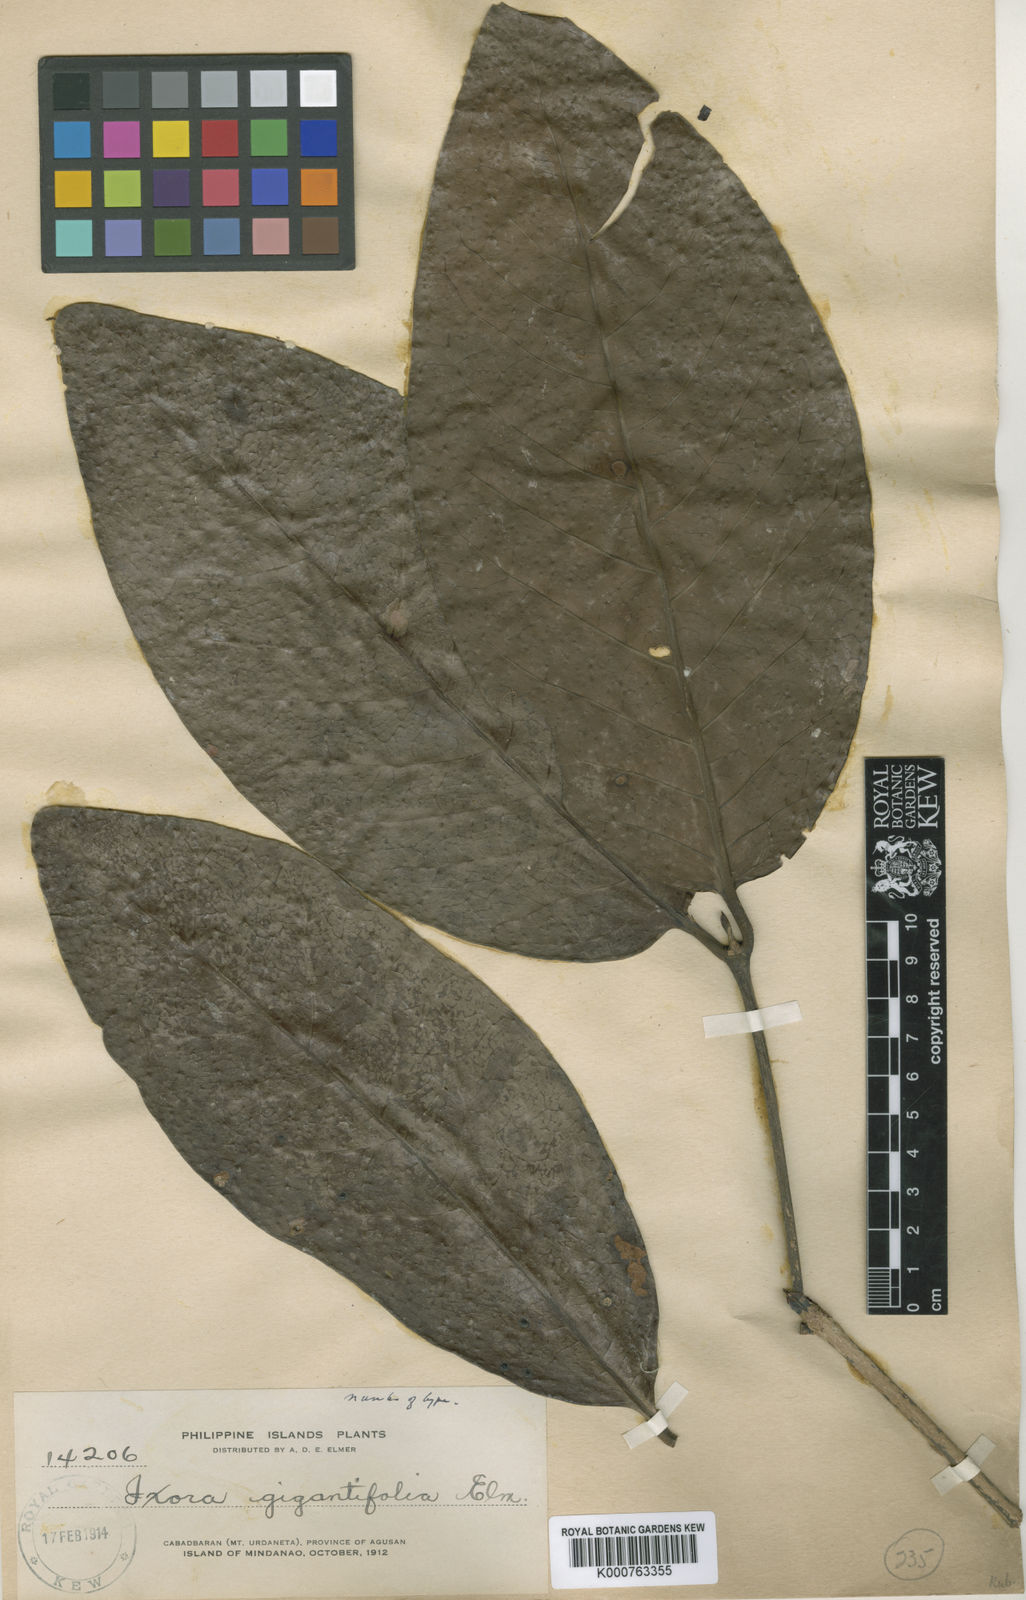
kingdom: Plantae
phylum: Tracheophyta
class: Magnoliopsida
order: Gentianales
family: Rubiaceae
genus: Ixora
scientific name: Ixora gigantifolia
